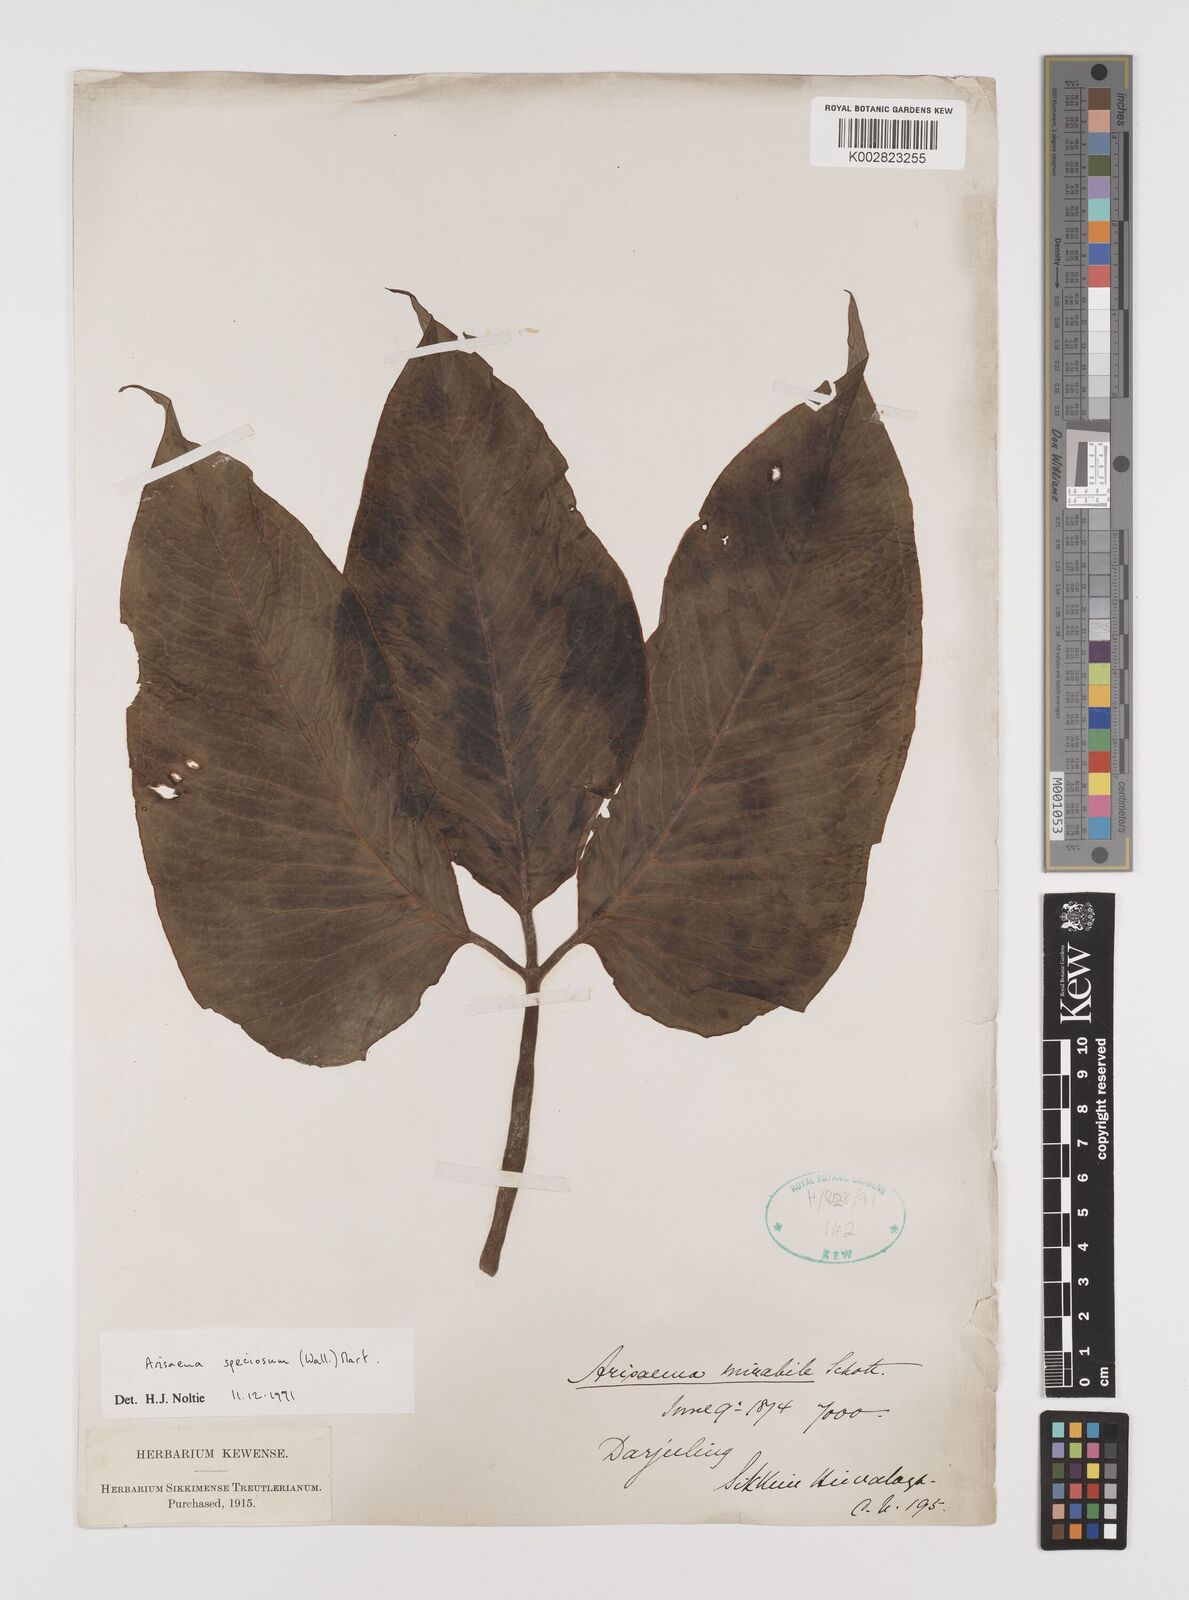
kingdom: Plantae
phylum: Tracheophyta
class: Liliopsida
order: Alismatales
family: Araceae
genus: Arisaema
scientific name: Arisaema speciosum
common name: Showy cobra-lily
